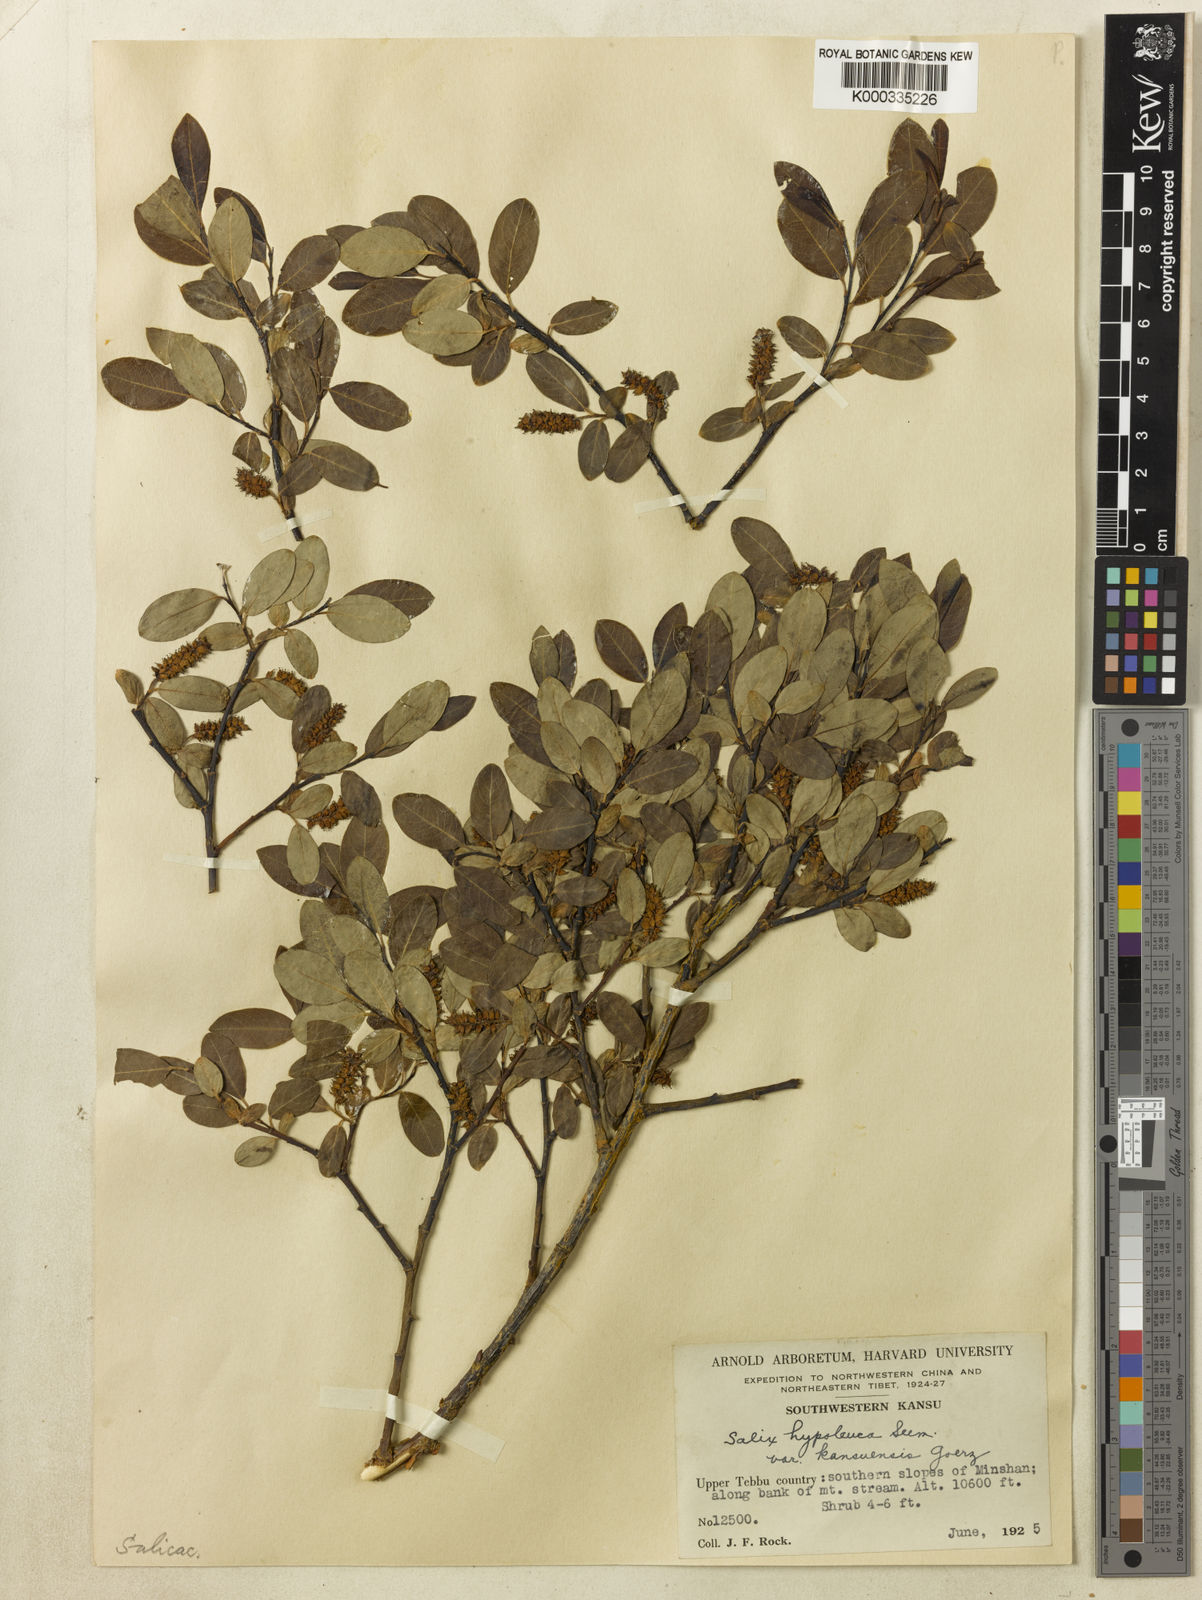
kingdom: Plantae
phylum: Tracheophyta
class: Magnoliopsida
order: Malpighiales
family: Salicaceae
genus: Salix
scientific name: Salix
